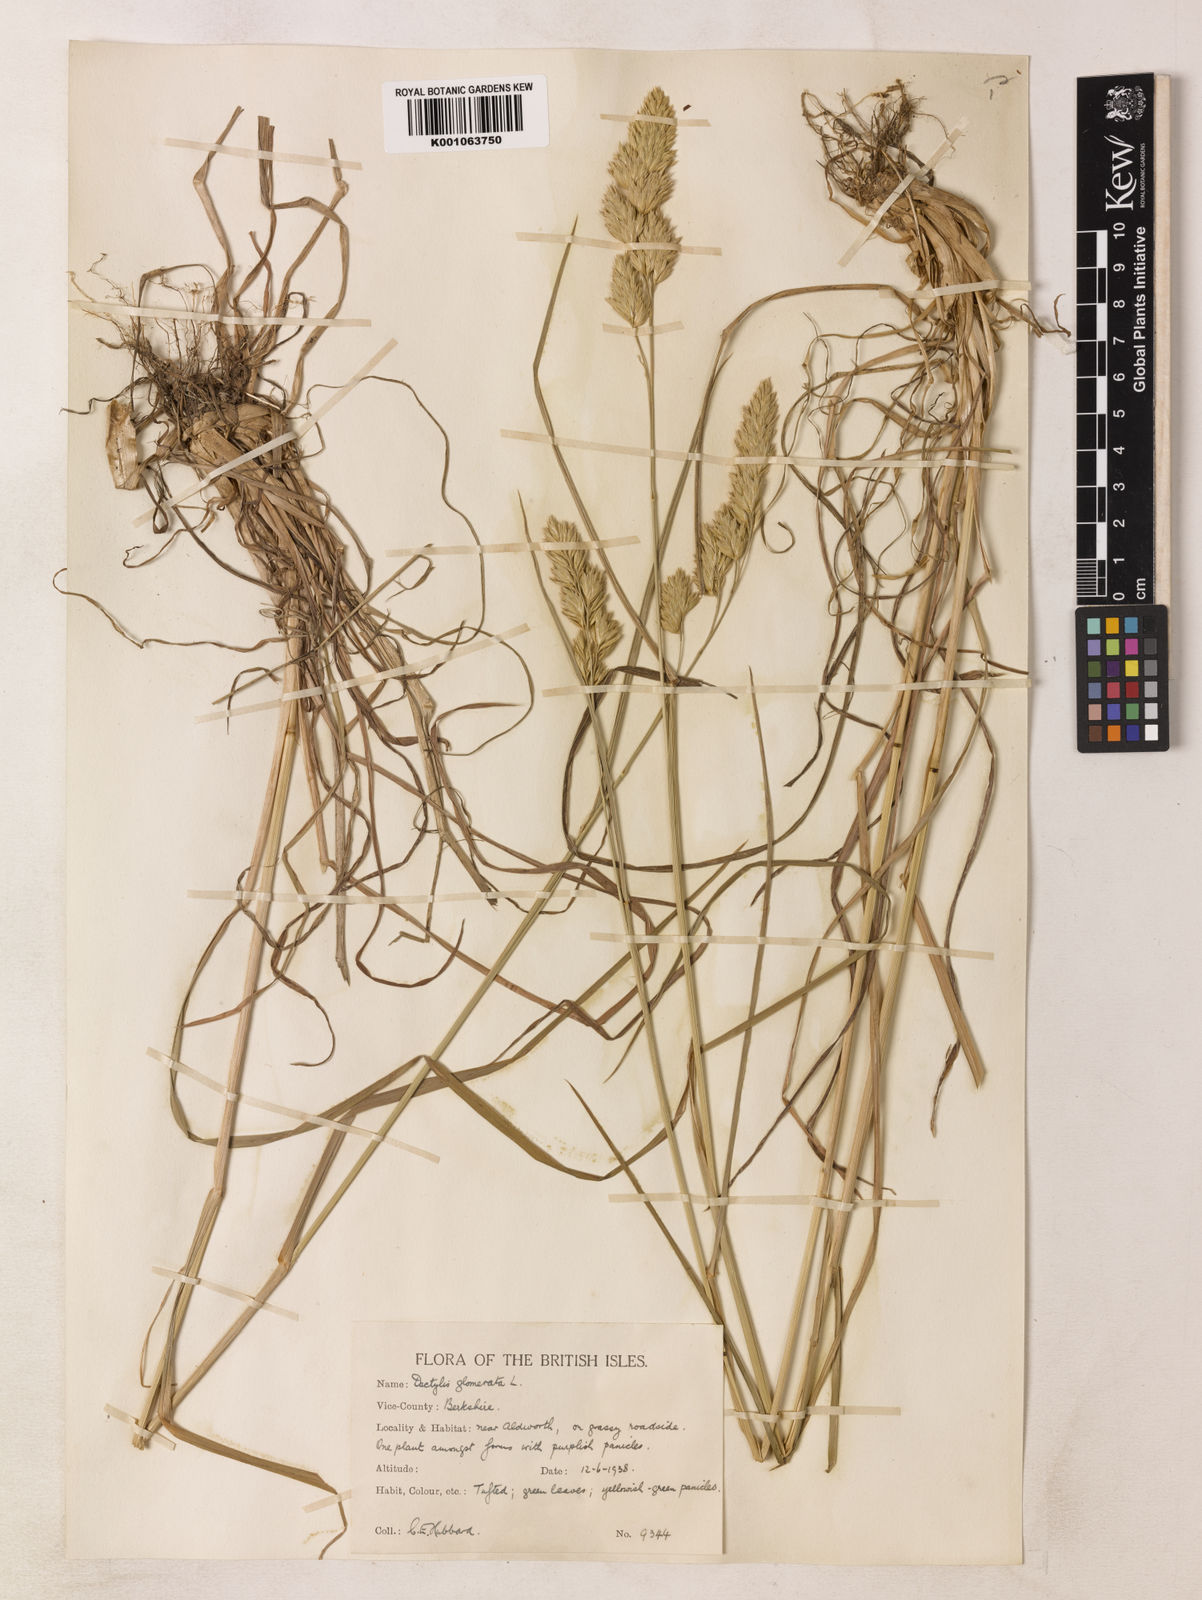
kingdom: Plantae
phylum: Tracheophyta
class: Liliopsida
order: Poales
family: Poaceae
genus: Dactylis
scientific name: Dactylis glomerata
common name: Orchardgrass
